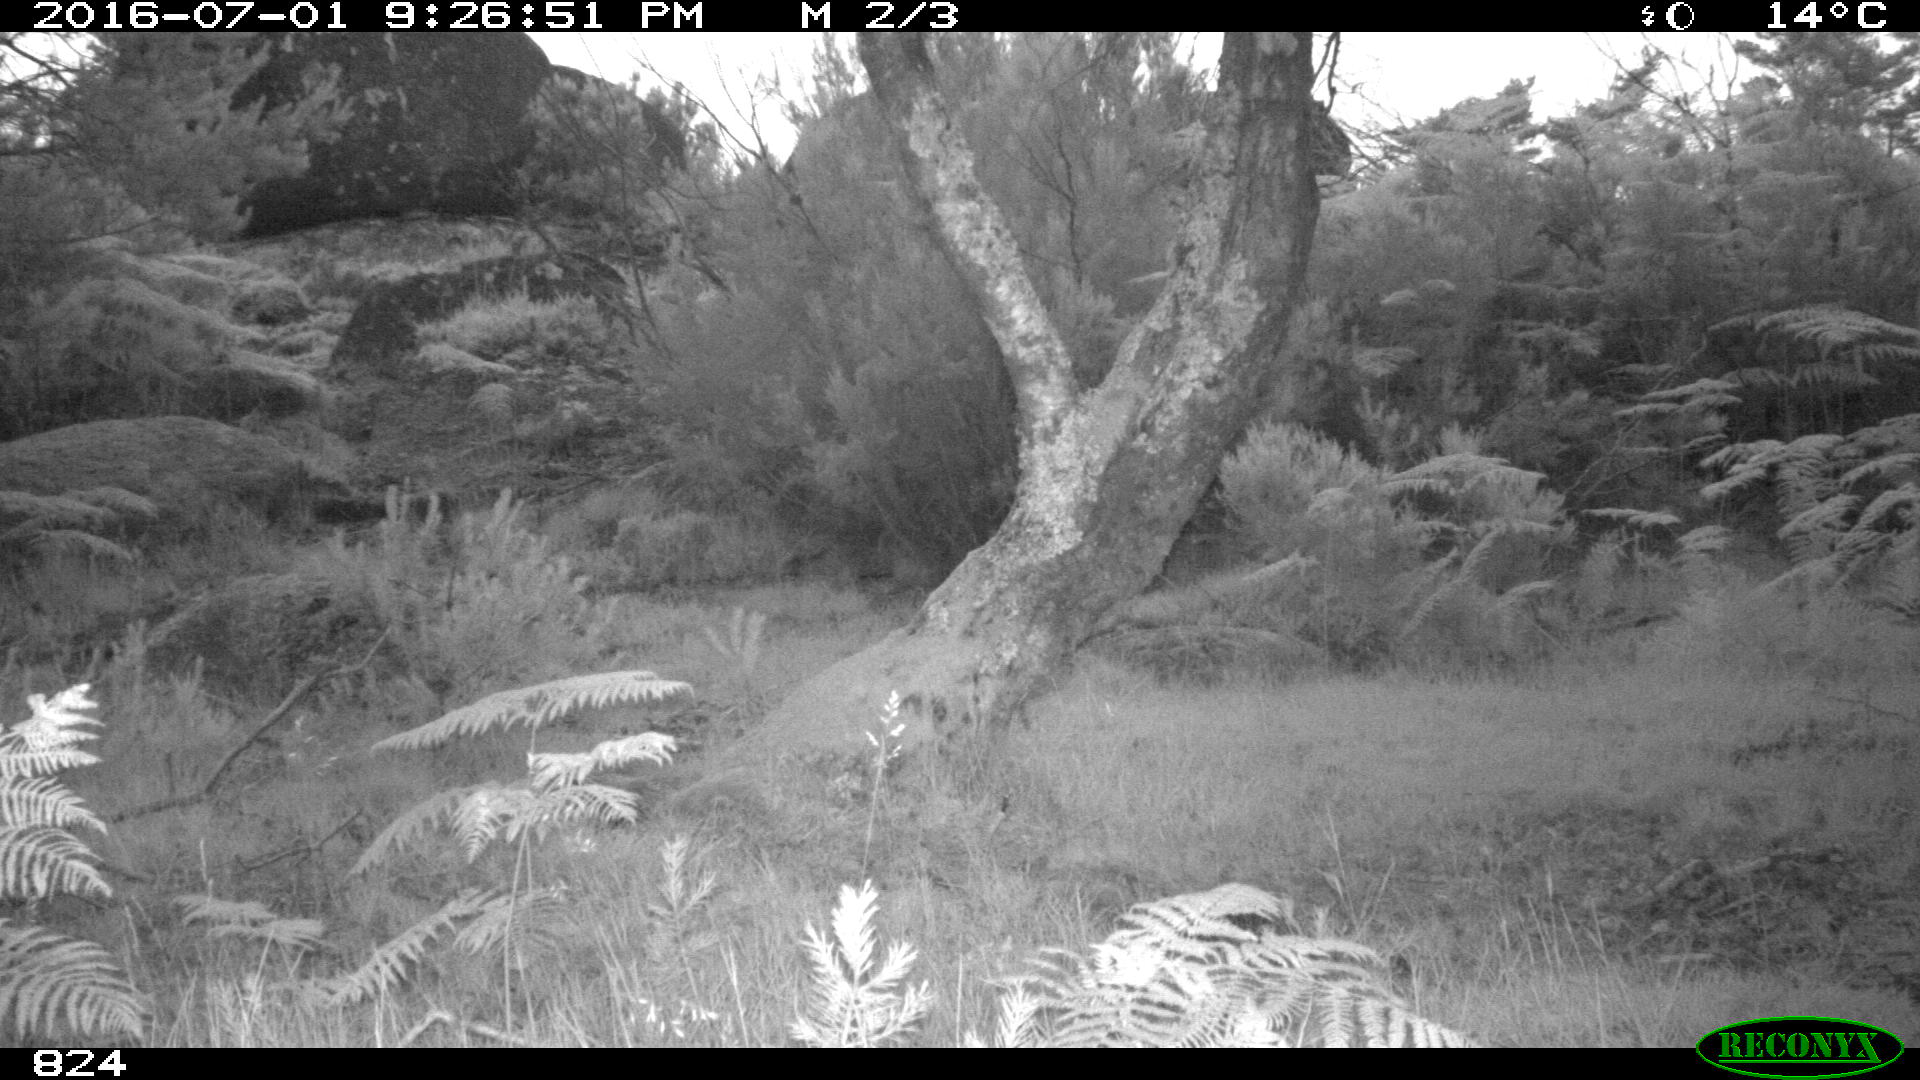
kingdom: Animalia
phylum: Chordata
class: Mammalia
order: Artiodactyla
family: Bovidae
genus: Bos
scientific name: Bos taurus
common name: Domesticated cattle
